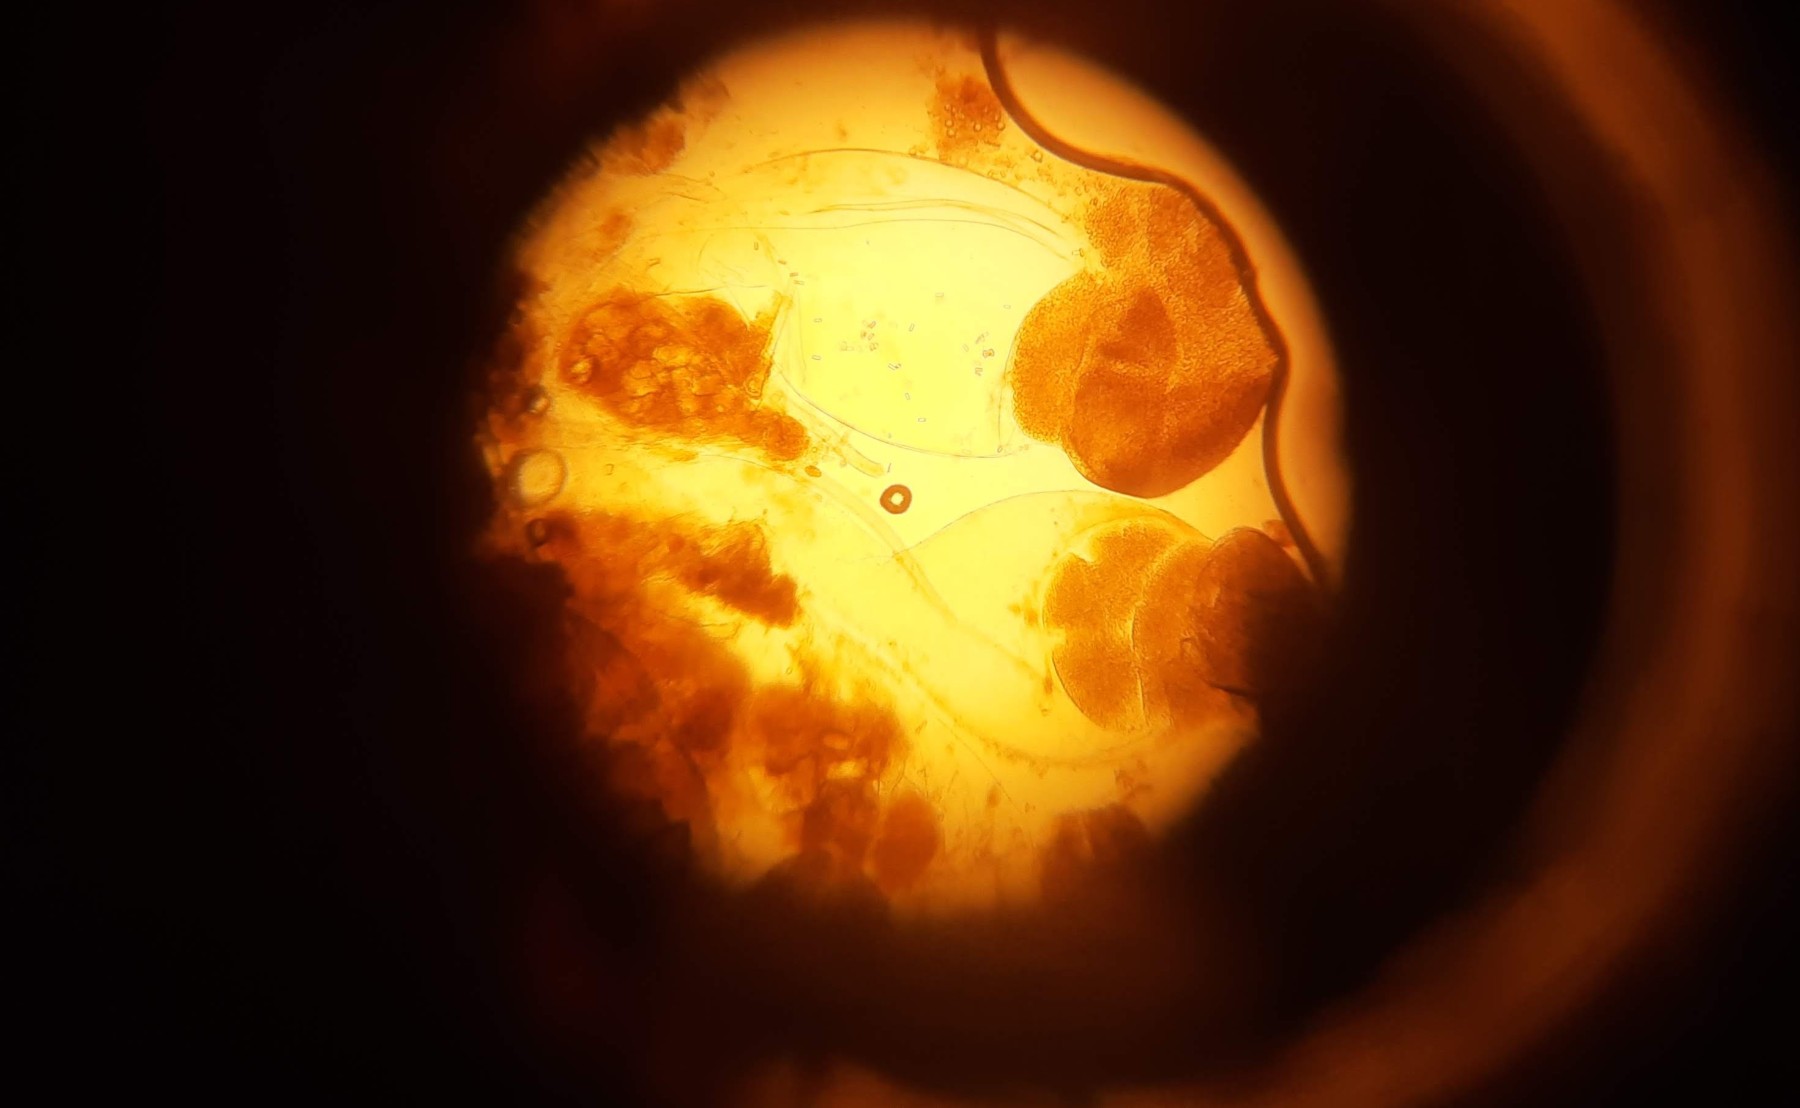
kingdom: Fungi
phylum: Mucoromycota
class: Mucoromycetes
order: Mucorales
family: Pilobolaceae
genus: Pilobolus
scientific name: Pilobolus crystallinus
